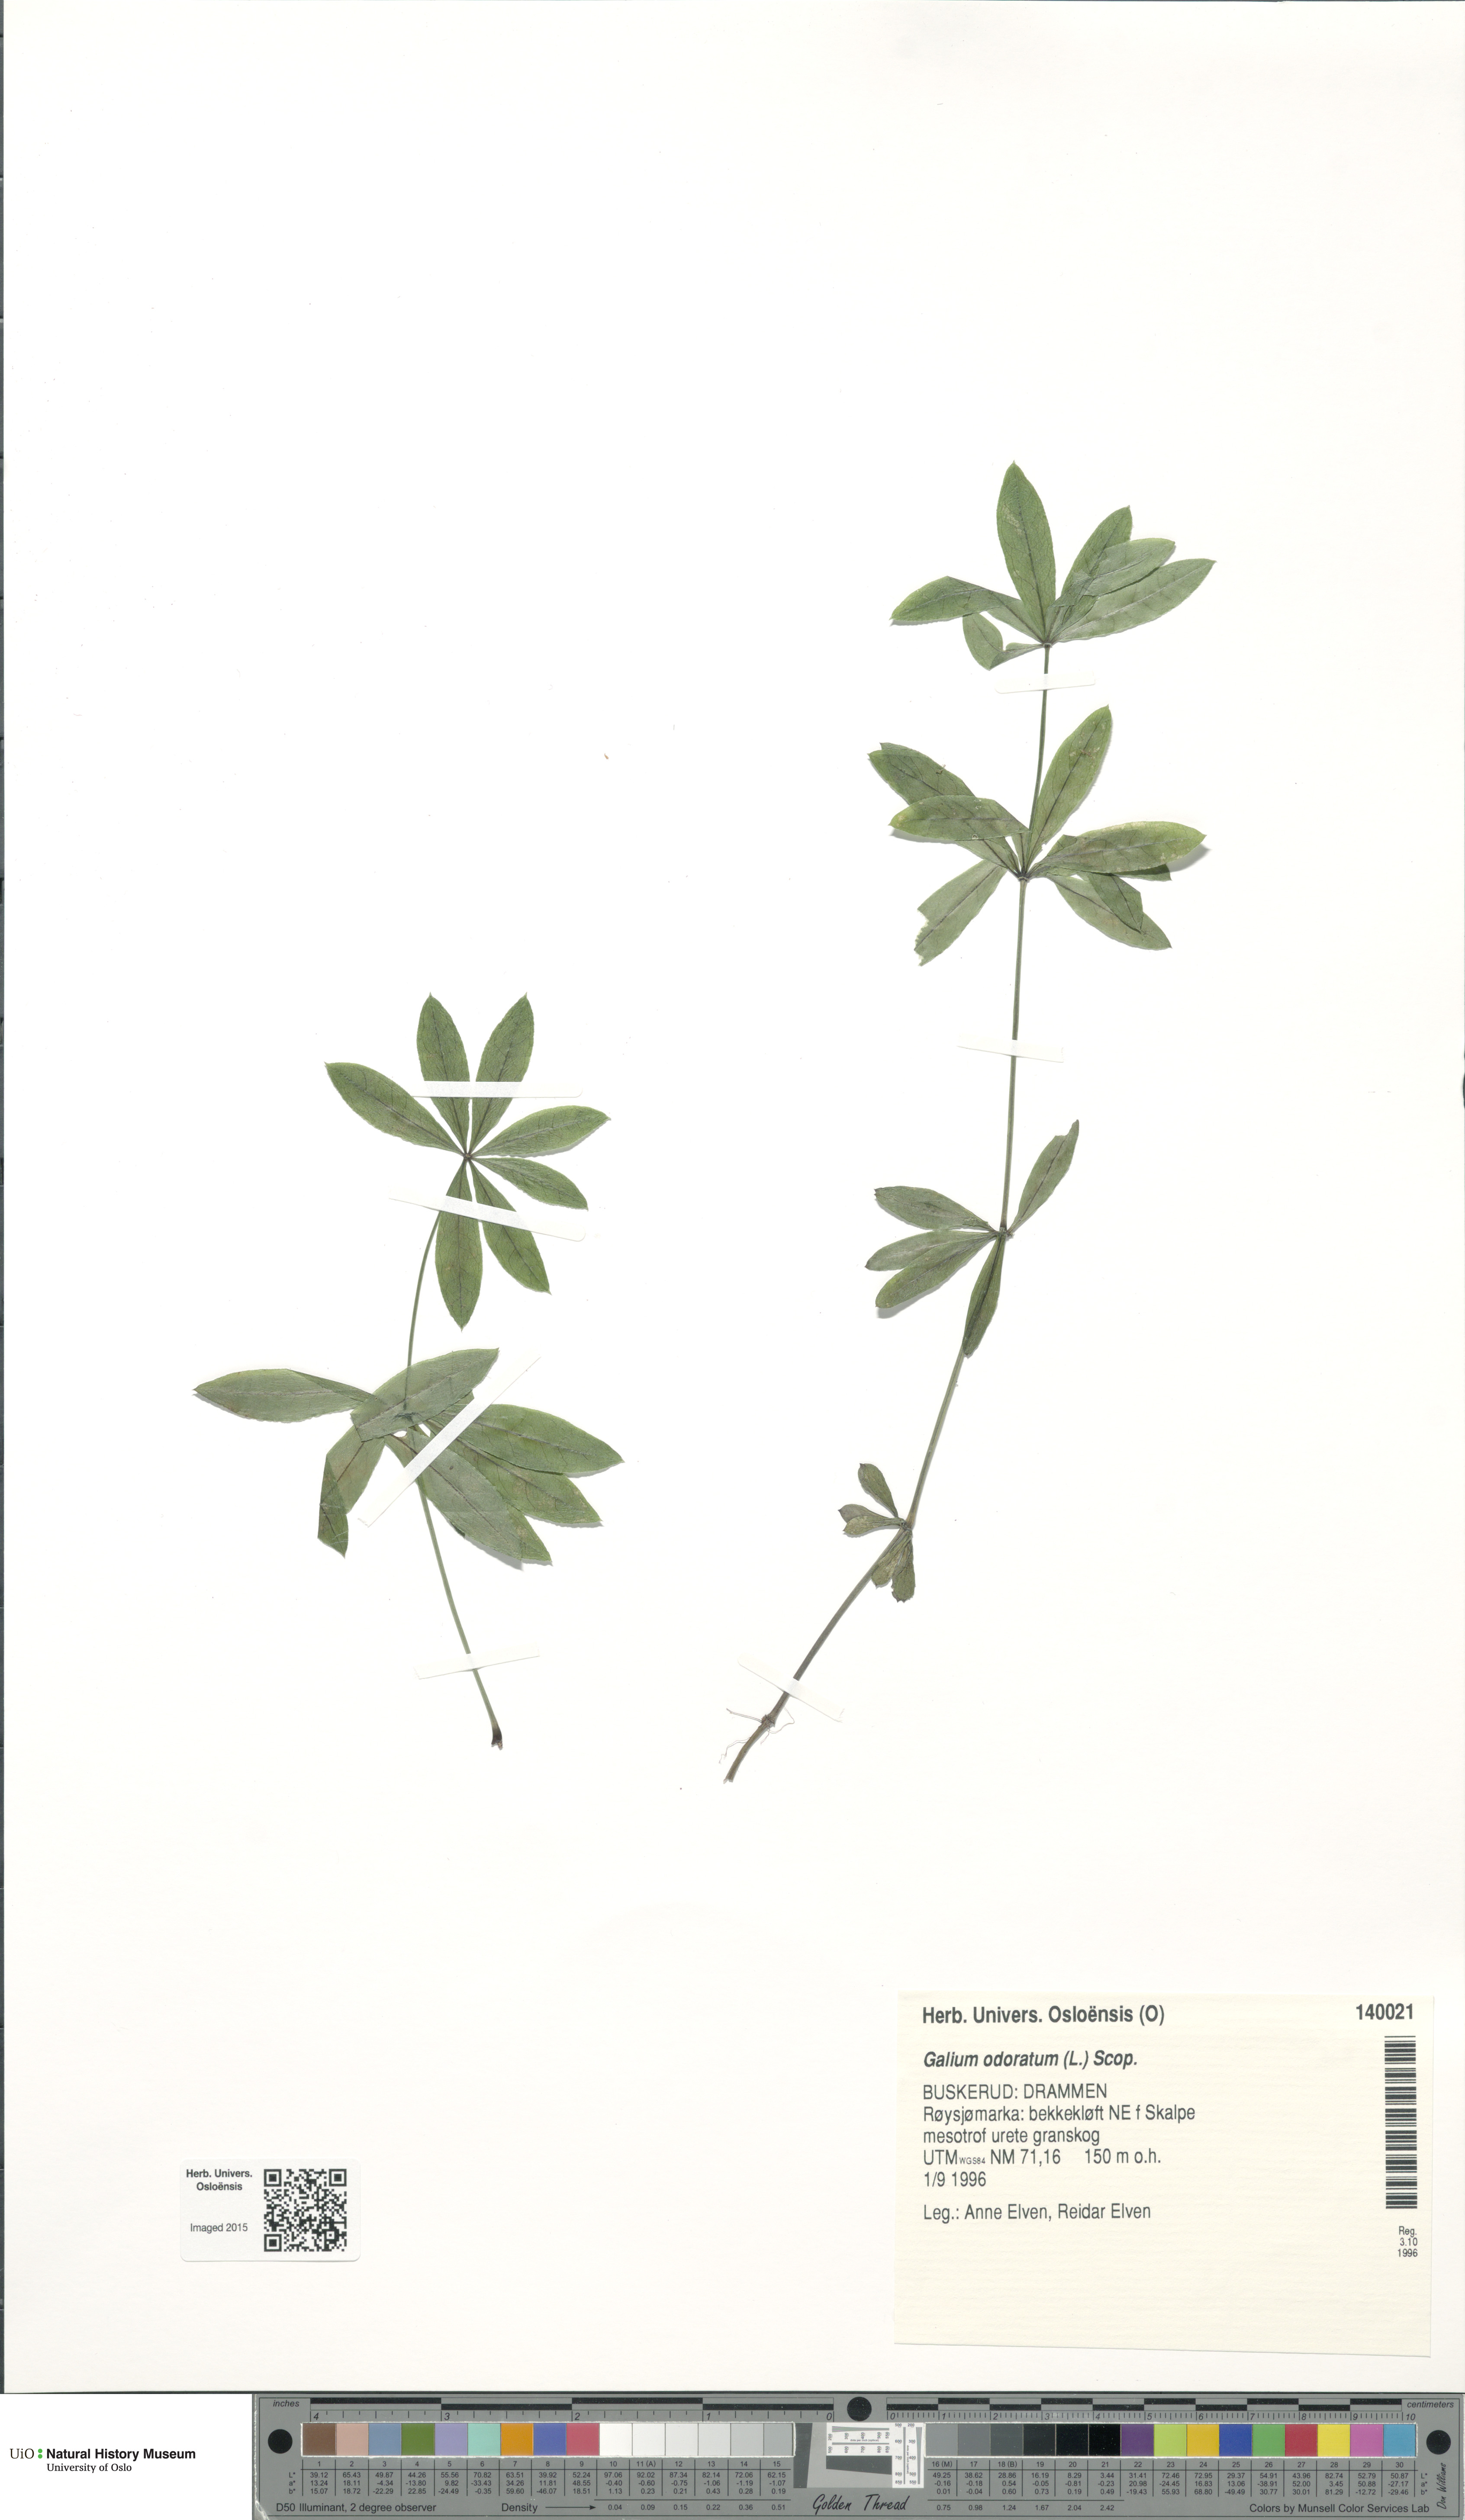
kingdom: Plantae
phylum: Tracheophyta
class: Magnoliopsida
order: Gentianales
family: Rubiaceae
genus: Galium
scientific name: Galium odoratum
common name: Sweet woodruff
